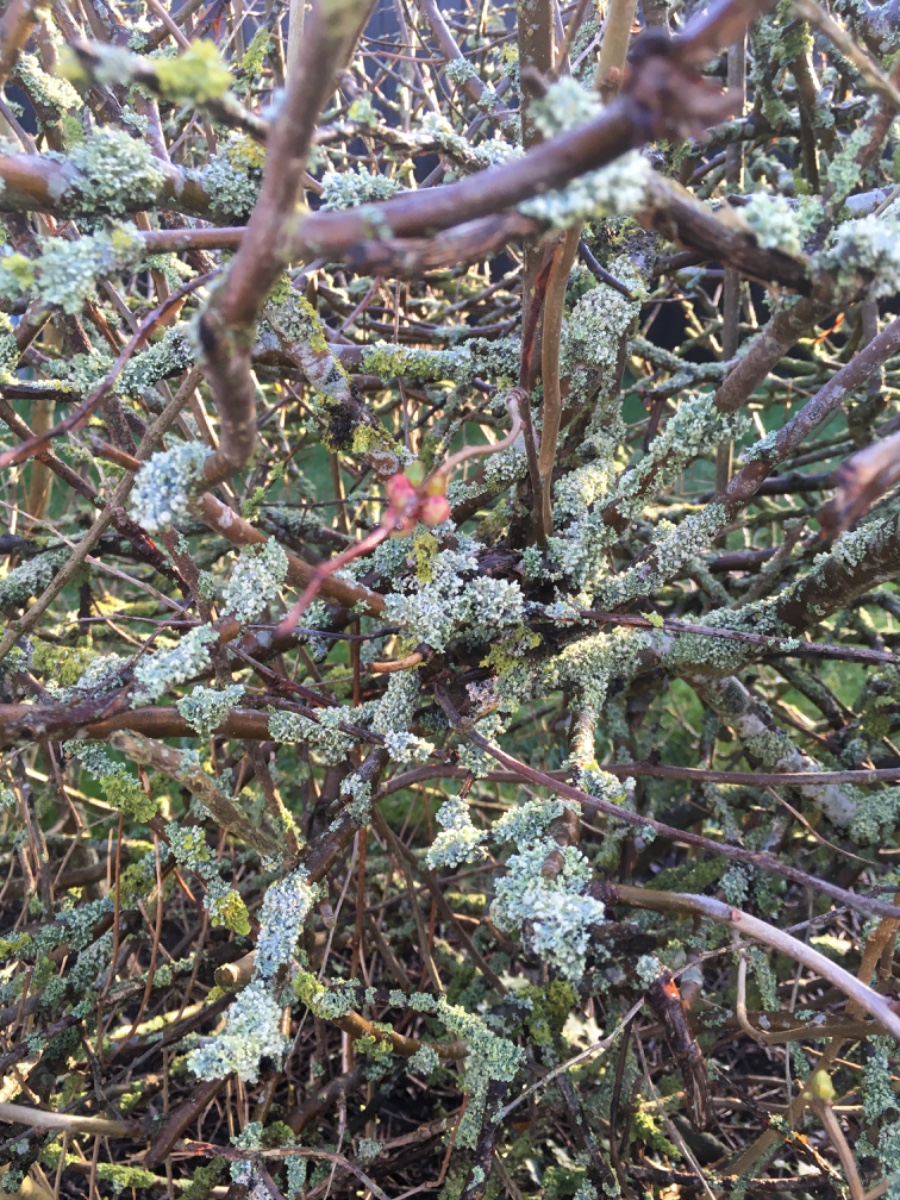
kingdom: Fungi
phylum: Ascomycota
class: Lecanoromycetes
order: Caliciales
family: Physciaceae
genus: Physcia
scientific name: Physcia adscendens
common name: hætte-rosetlav
